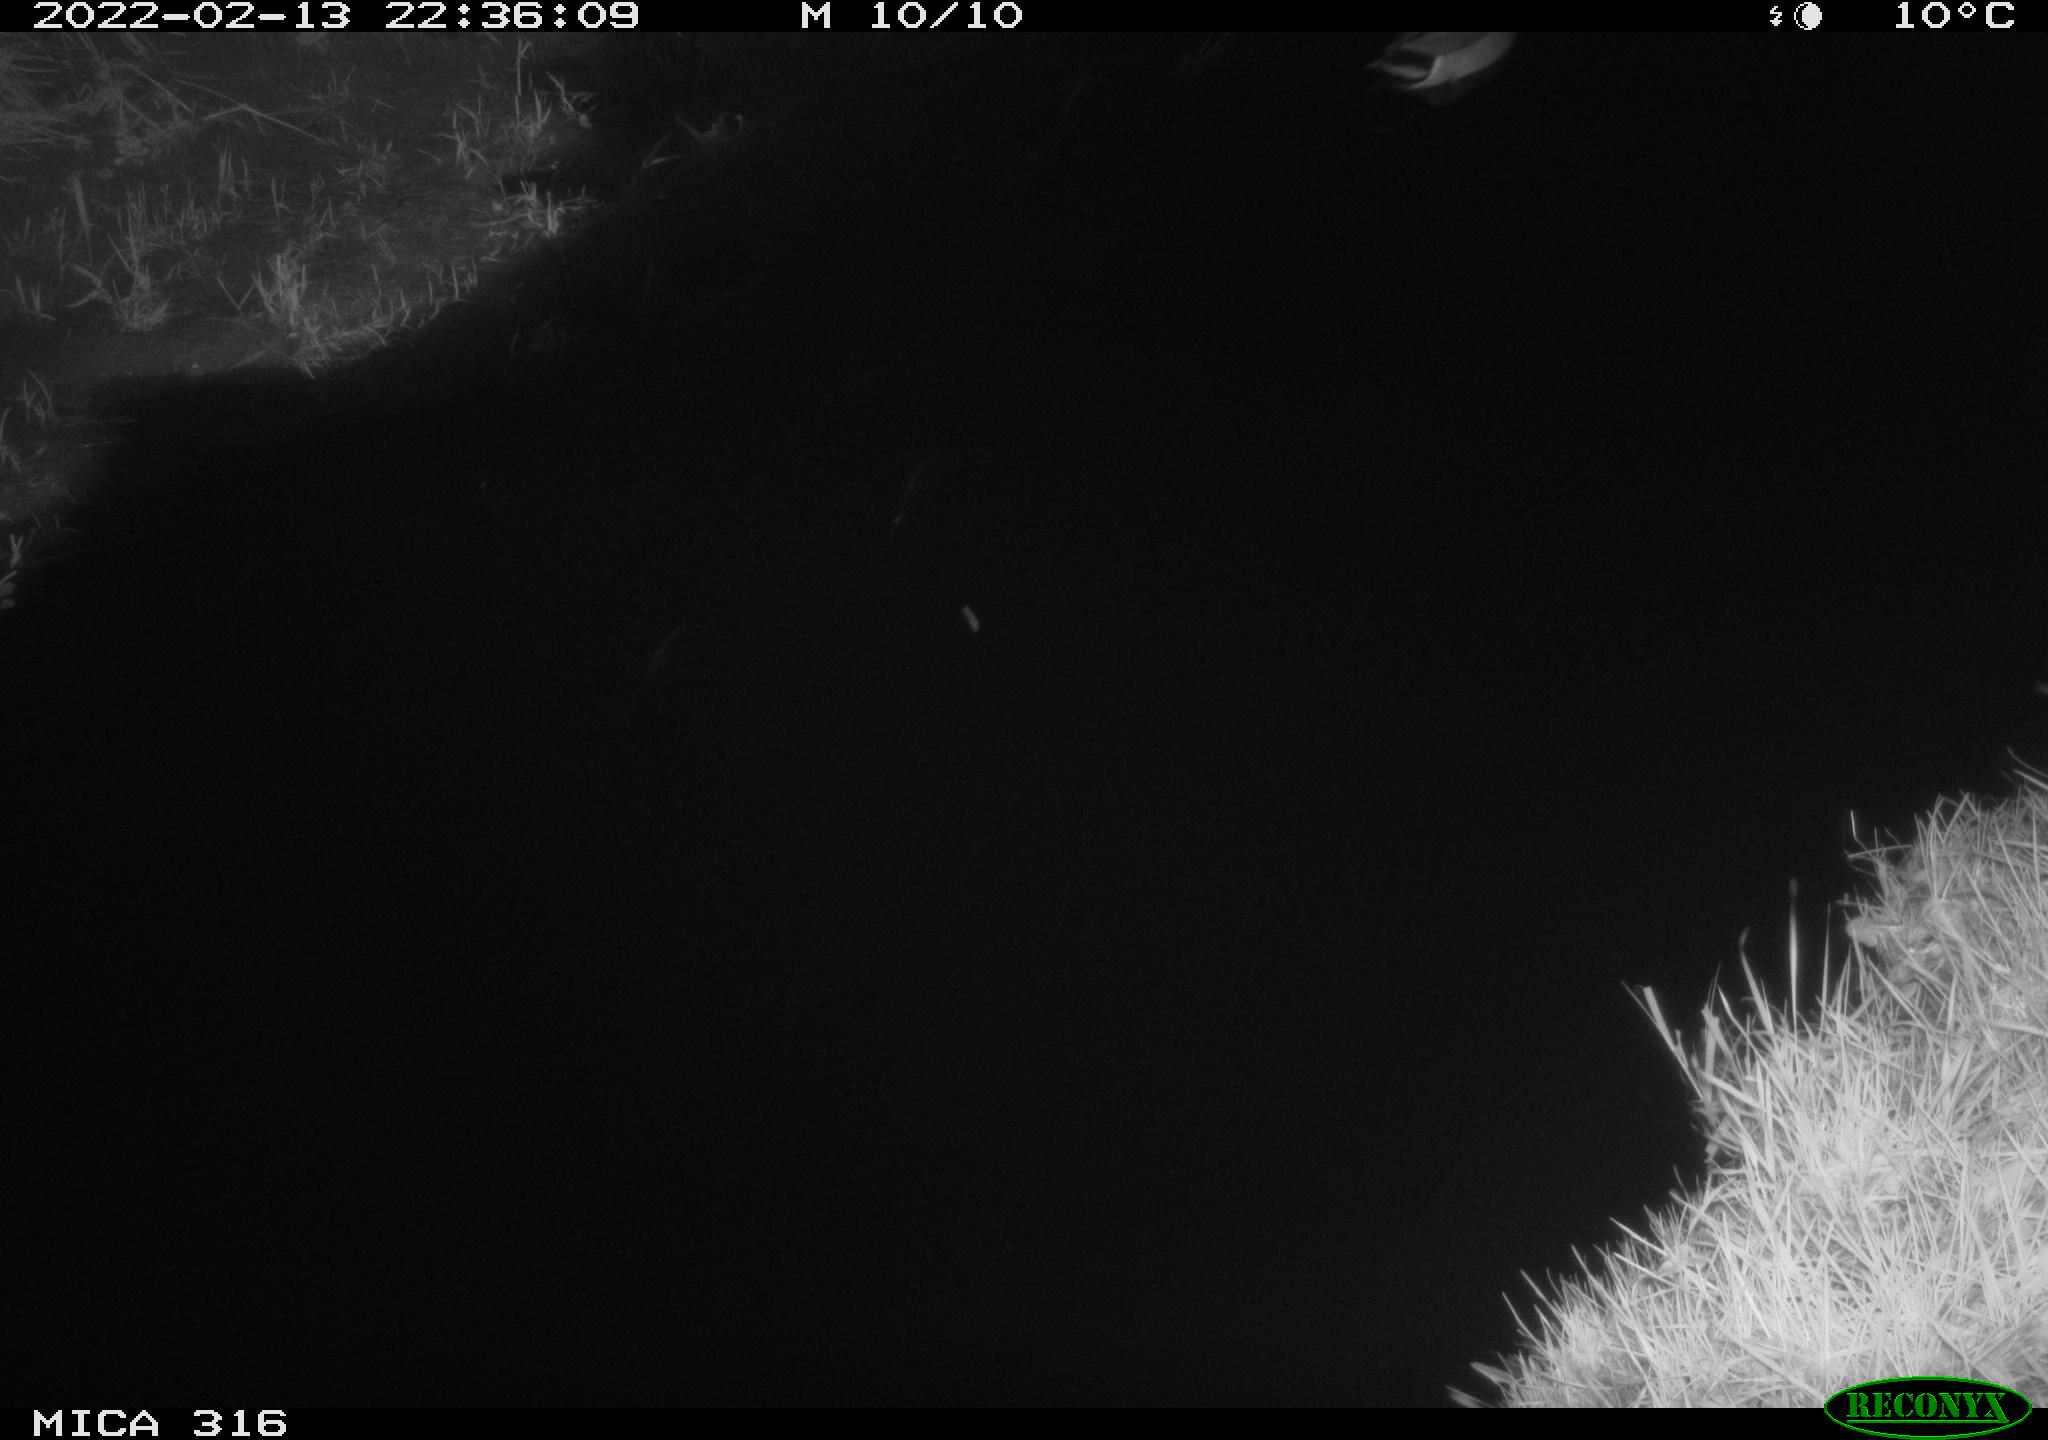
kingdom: Animalia
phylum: Chordata
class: Aves
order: Anseriformes
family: Anatidae
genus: Anas
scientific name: Anas platyrhynchos
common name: Mallard
